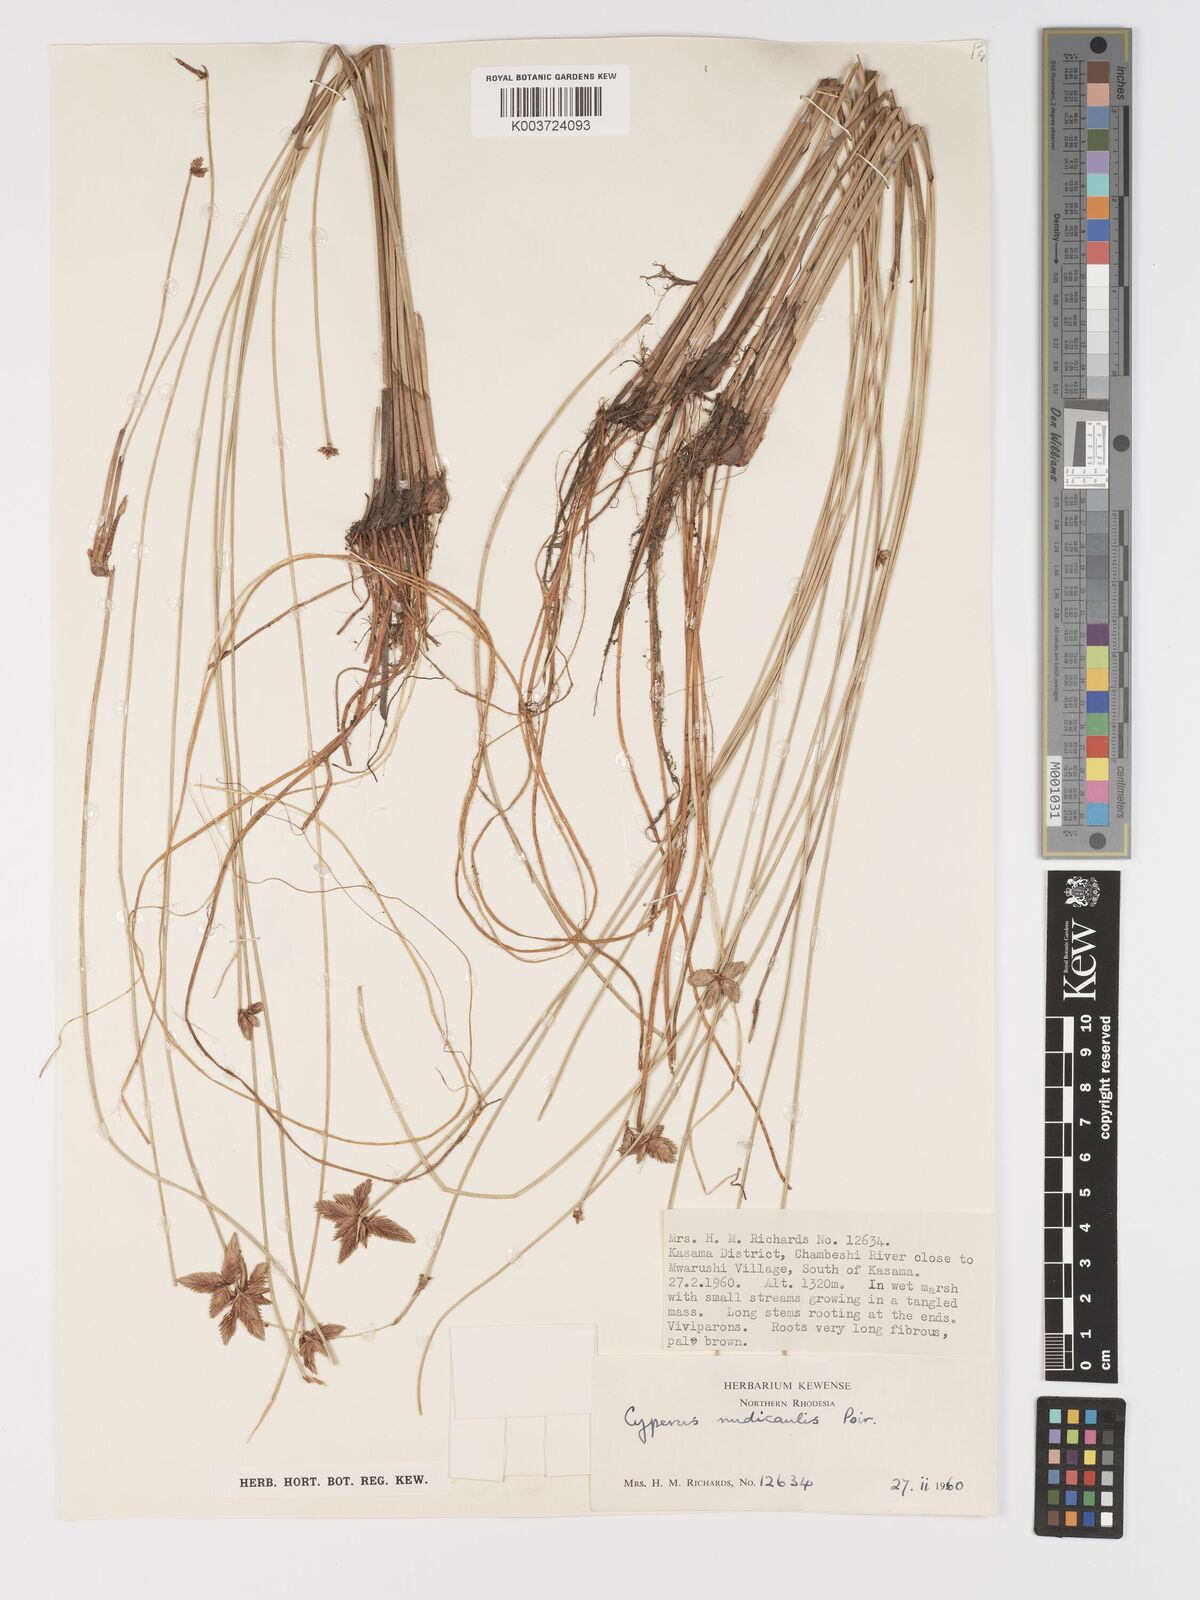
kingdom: Plantae
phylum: Tracheophyta
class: Liliopsida
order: Poales
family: Cyperaceae
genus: Cyperus
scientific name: Cyperus compressus
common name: Poorland flatsedge
